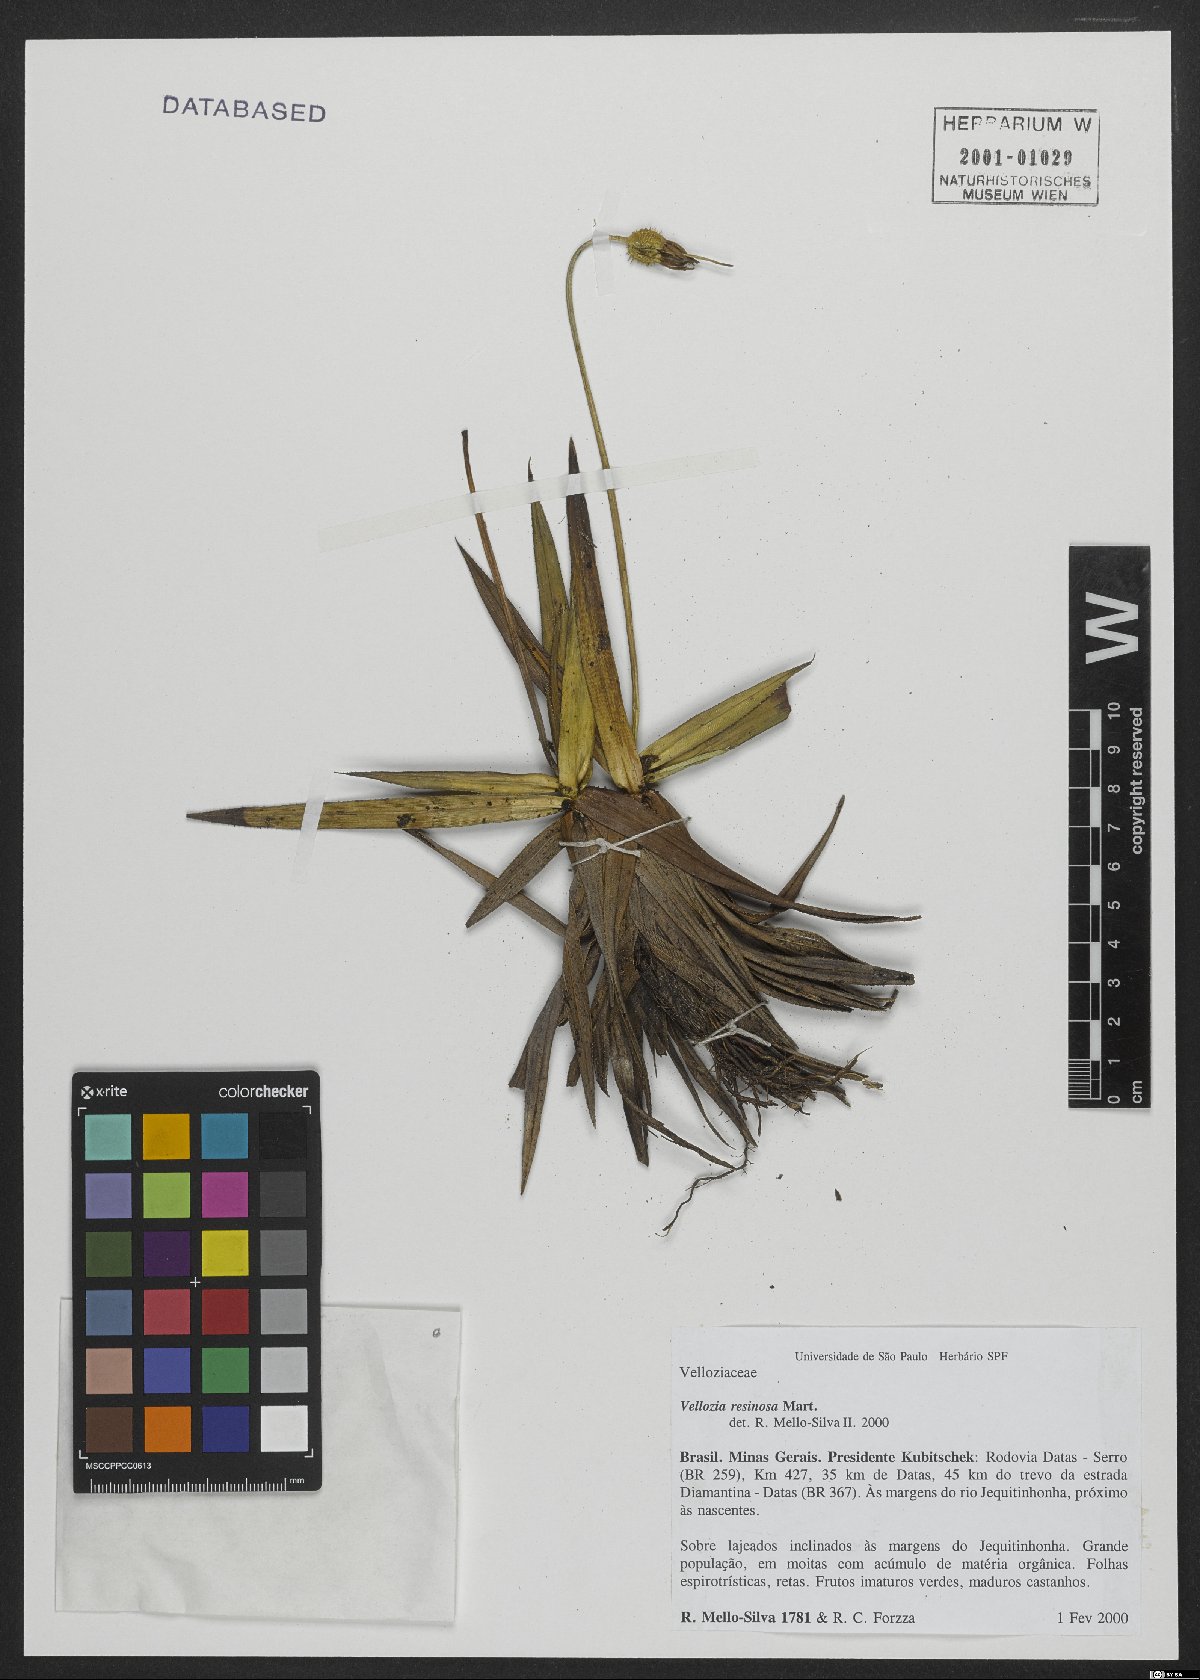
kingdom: Plantae
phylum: Tracheophyta
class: Liliopsida
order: Pandanales
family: Velloziaceae
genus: Vellozia
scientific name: Vellozia resinosa
